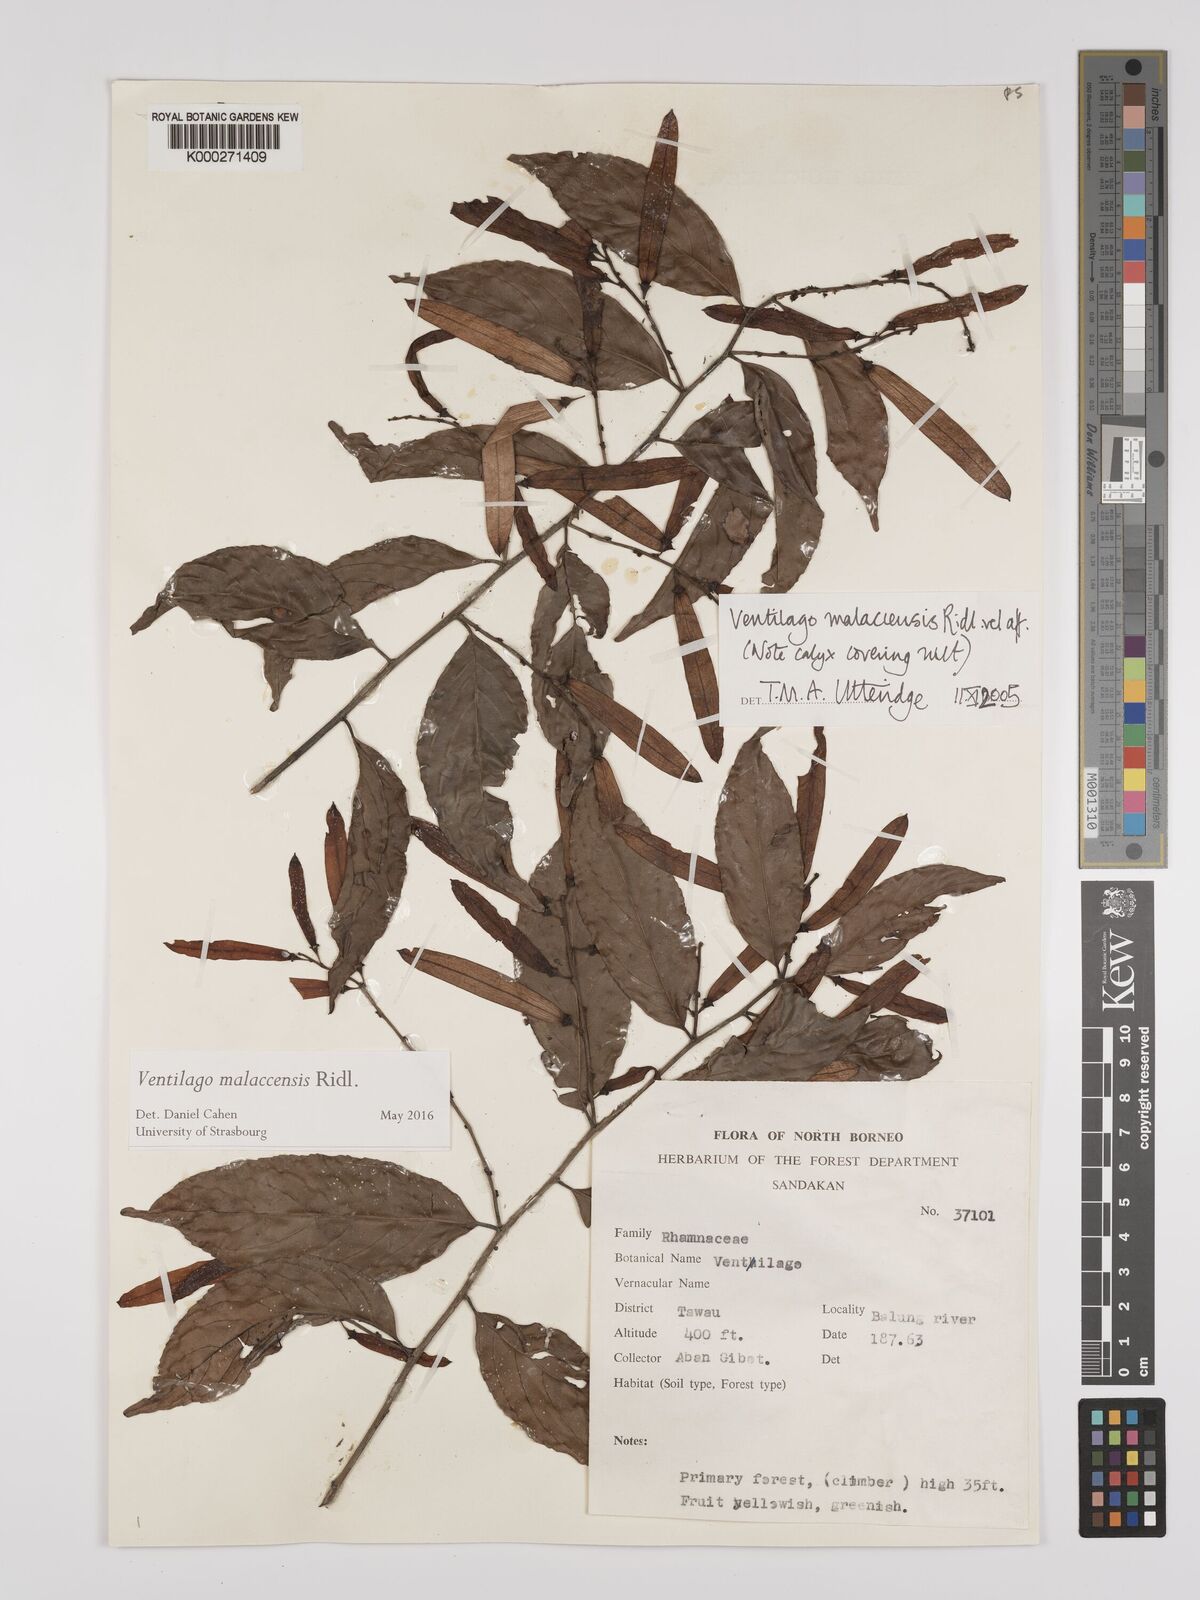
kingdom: Plantae
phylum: Tracheophyta
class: Magnoliopsida
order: Rosales
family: Rhamnaceae
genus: Ventilago
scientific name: Ventilago
